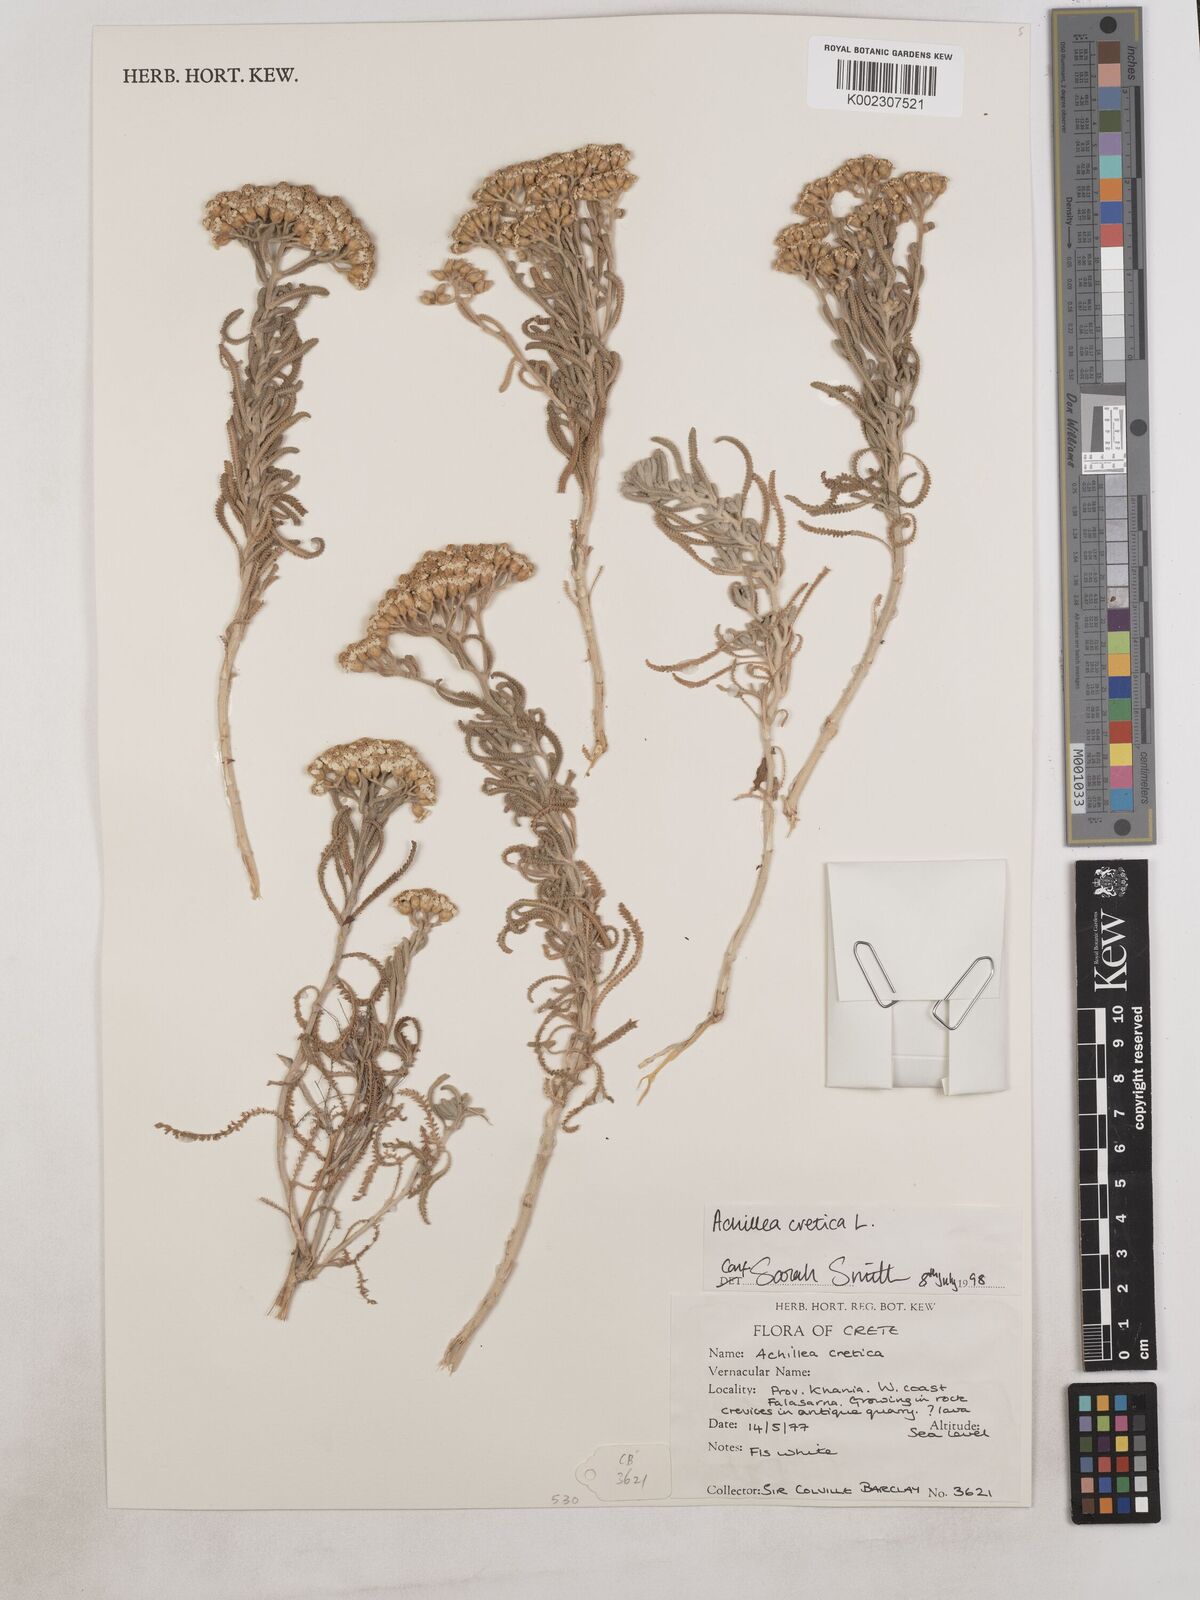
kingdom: Plantae
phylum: Tracheophyta
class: Magnoliopsida
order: Asterales
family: Asteraceae
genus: Achillea
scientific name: Achillea cretica
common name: Chamomile-leaved lavender-cotton
